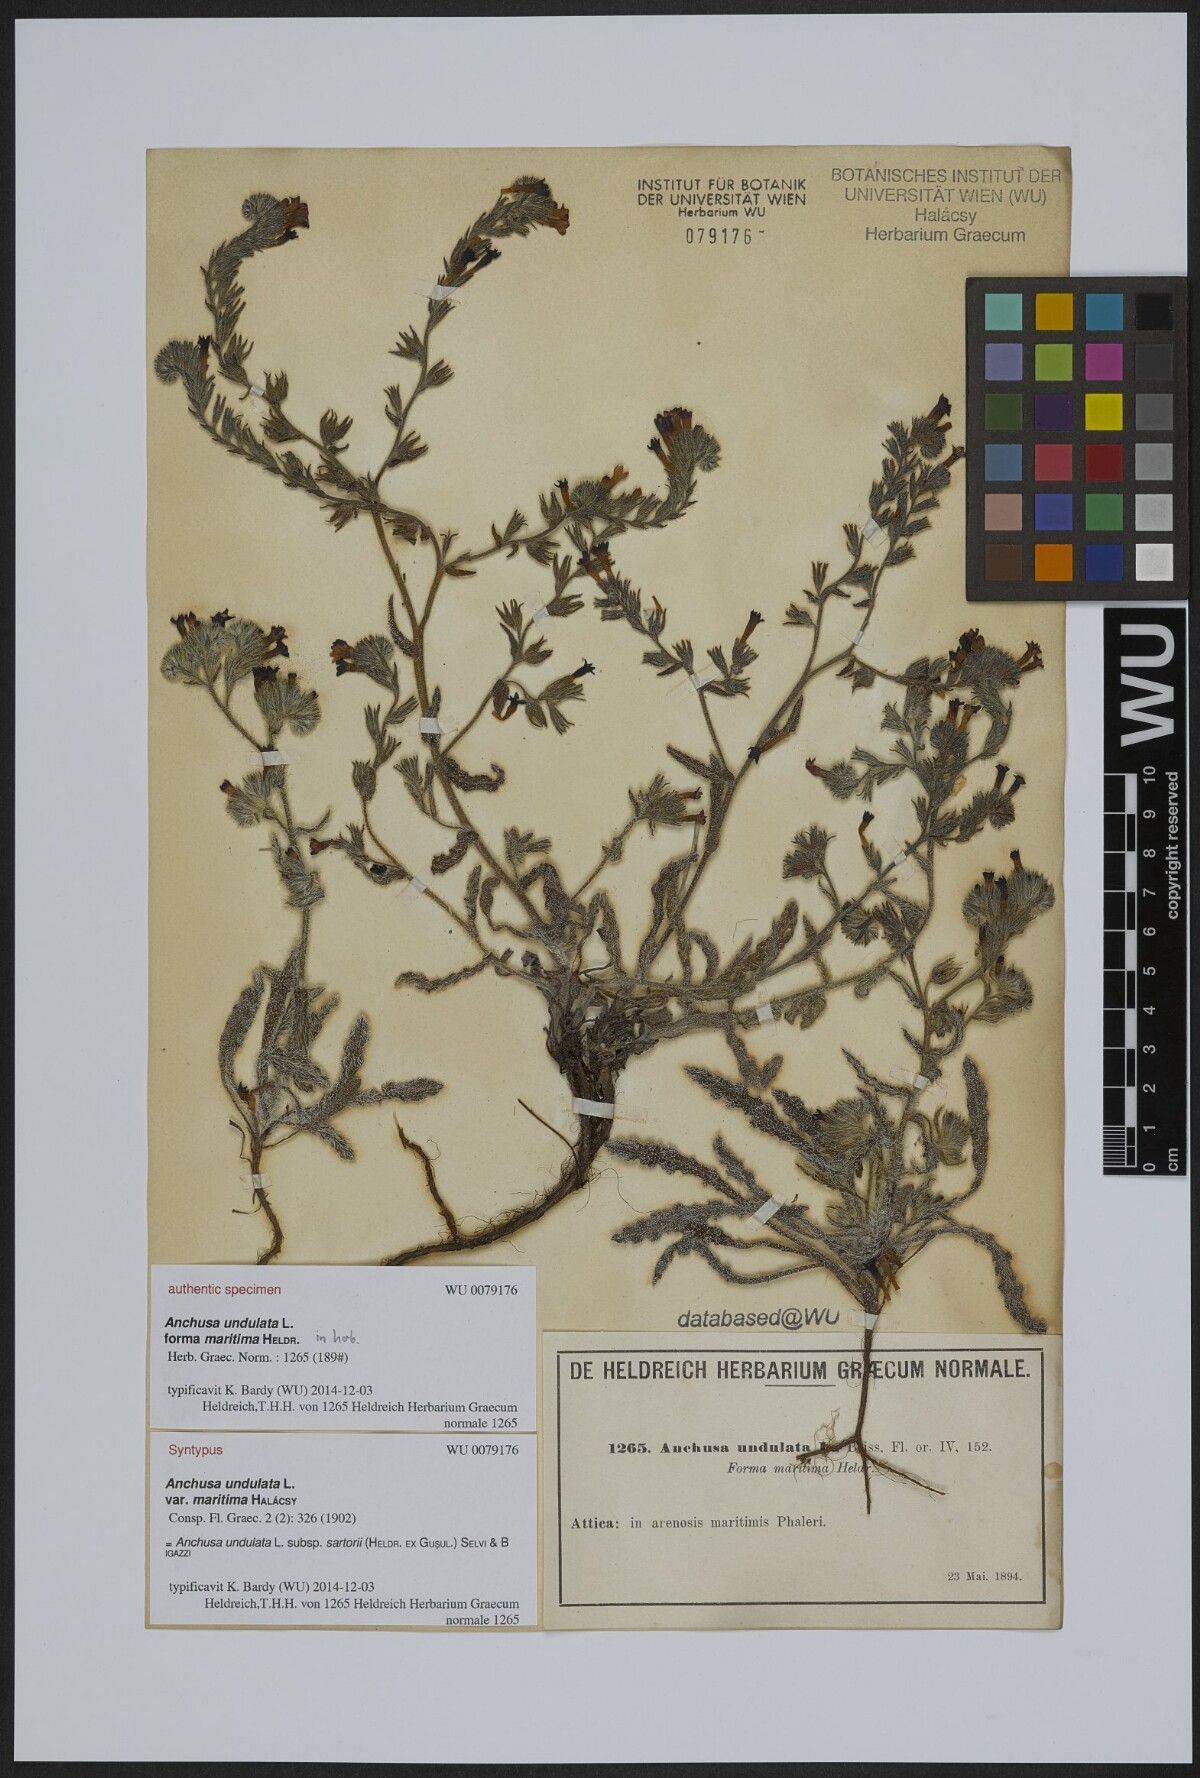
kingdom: Plantae
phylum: Tracheophyta
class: Magnoliopsida
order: Boraginales
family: Boraginaceae
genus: Anchusa
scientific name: Anchusa undulata
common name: Undulate alkanet
